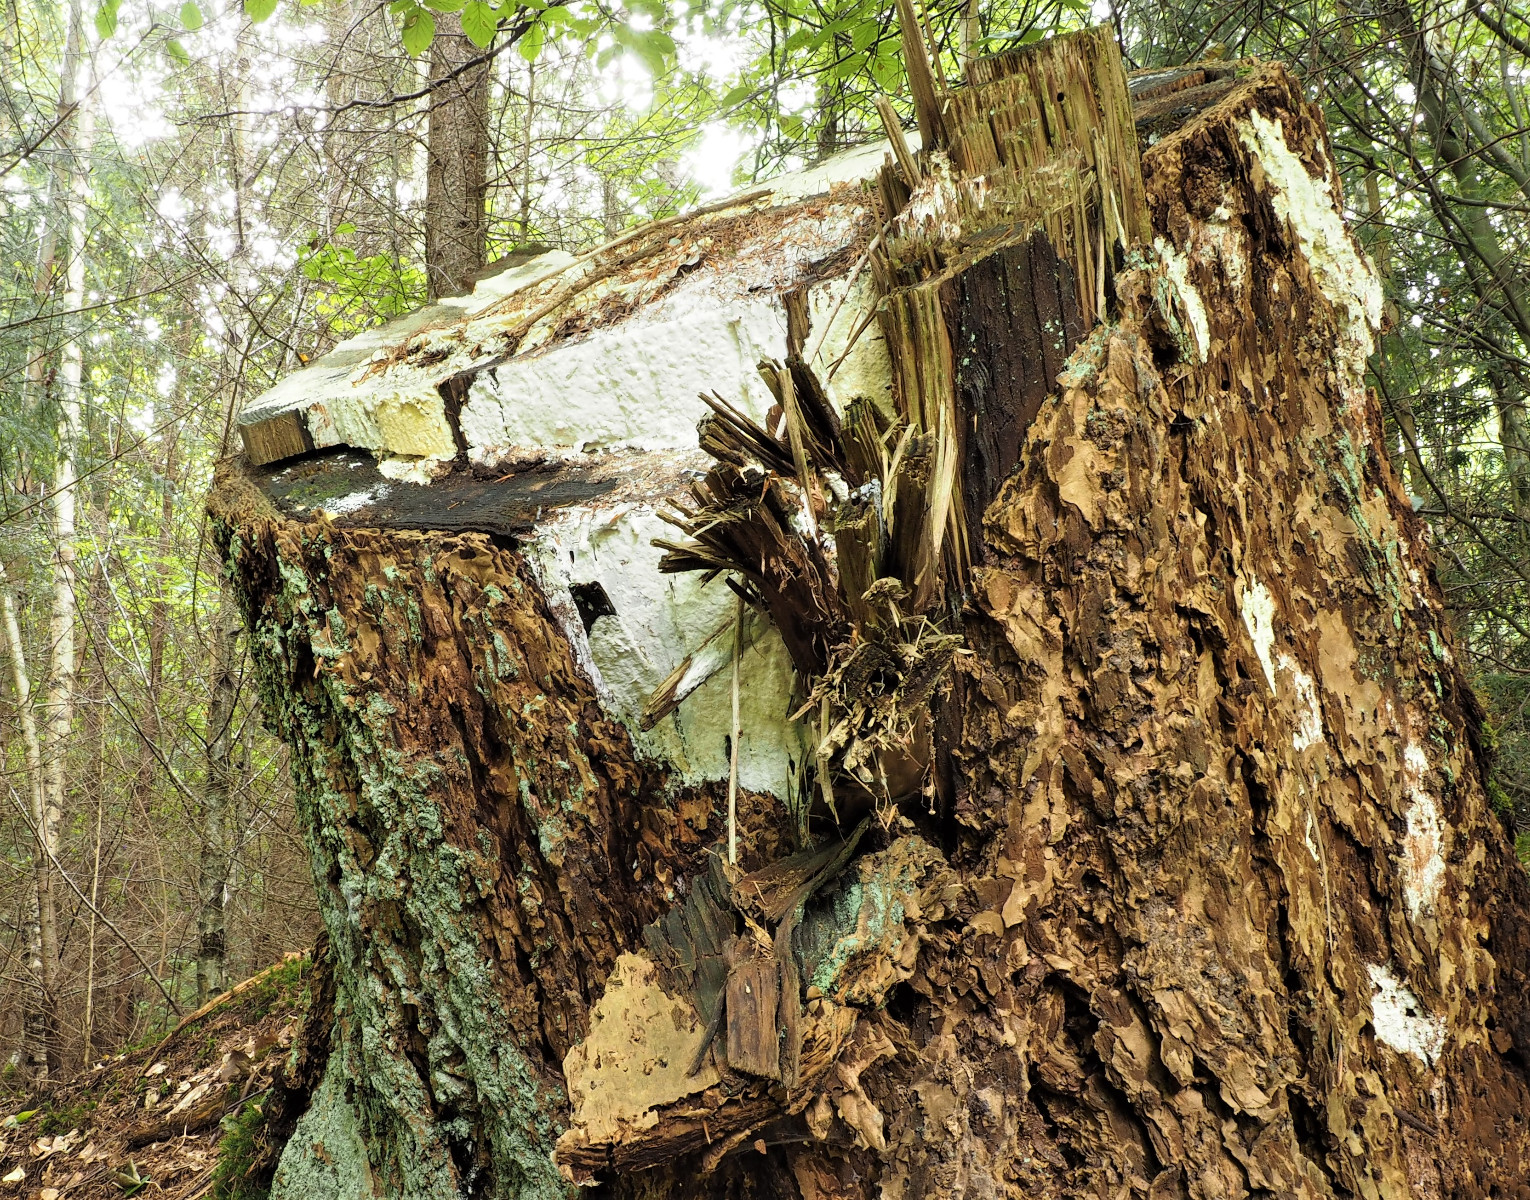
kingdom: Fungi
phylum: Basidiomycota
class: Agaricomycetes
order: Polyporales
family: Fomitopsidaceae
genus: Daedalea
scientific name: Daedalea xantha
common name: gul sejporesvamp
